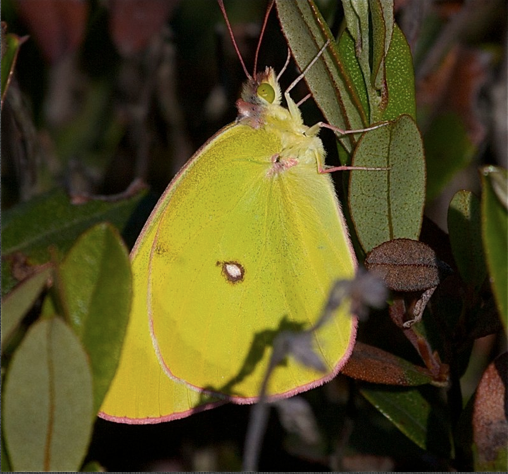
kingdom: Animalia
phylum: Arthropoda
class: Insecta
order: Lepidoptera
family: Pieridae
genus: Colias
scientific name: Colias interior
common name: Pink-edged Sulphur
